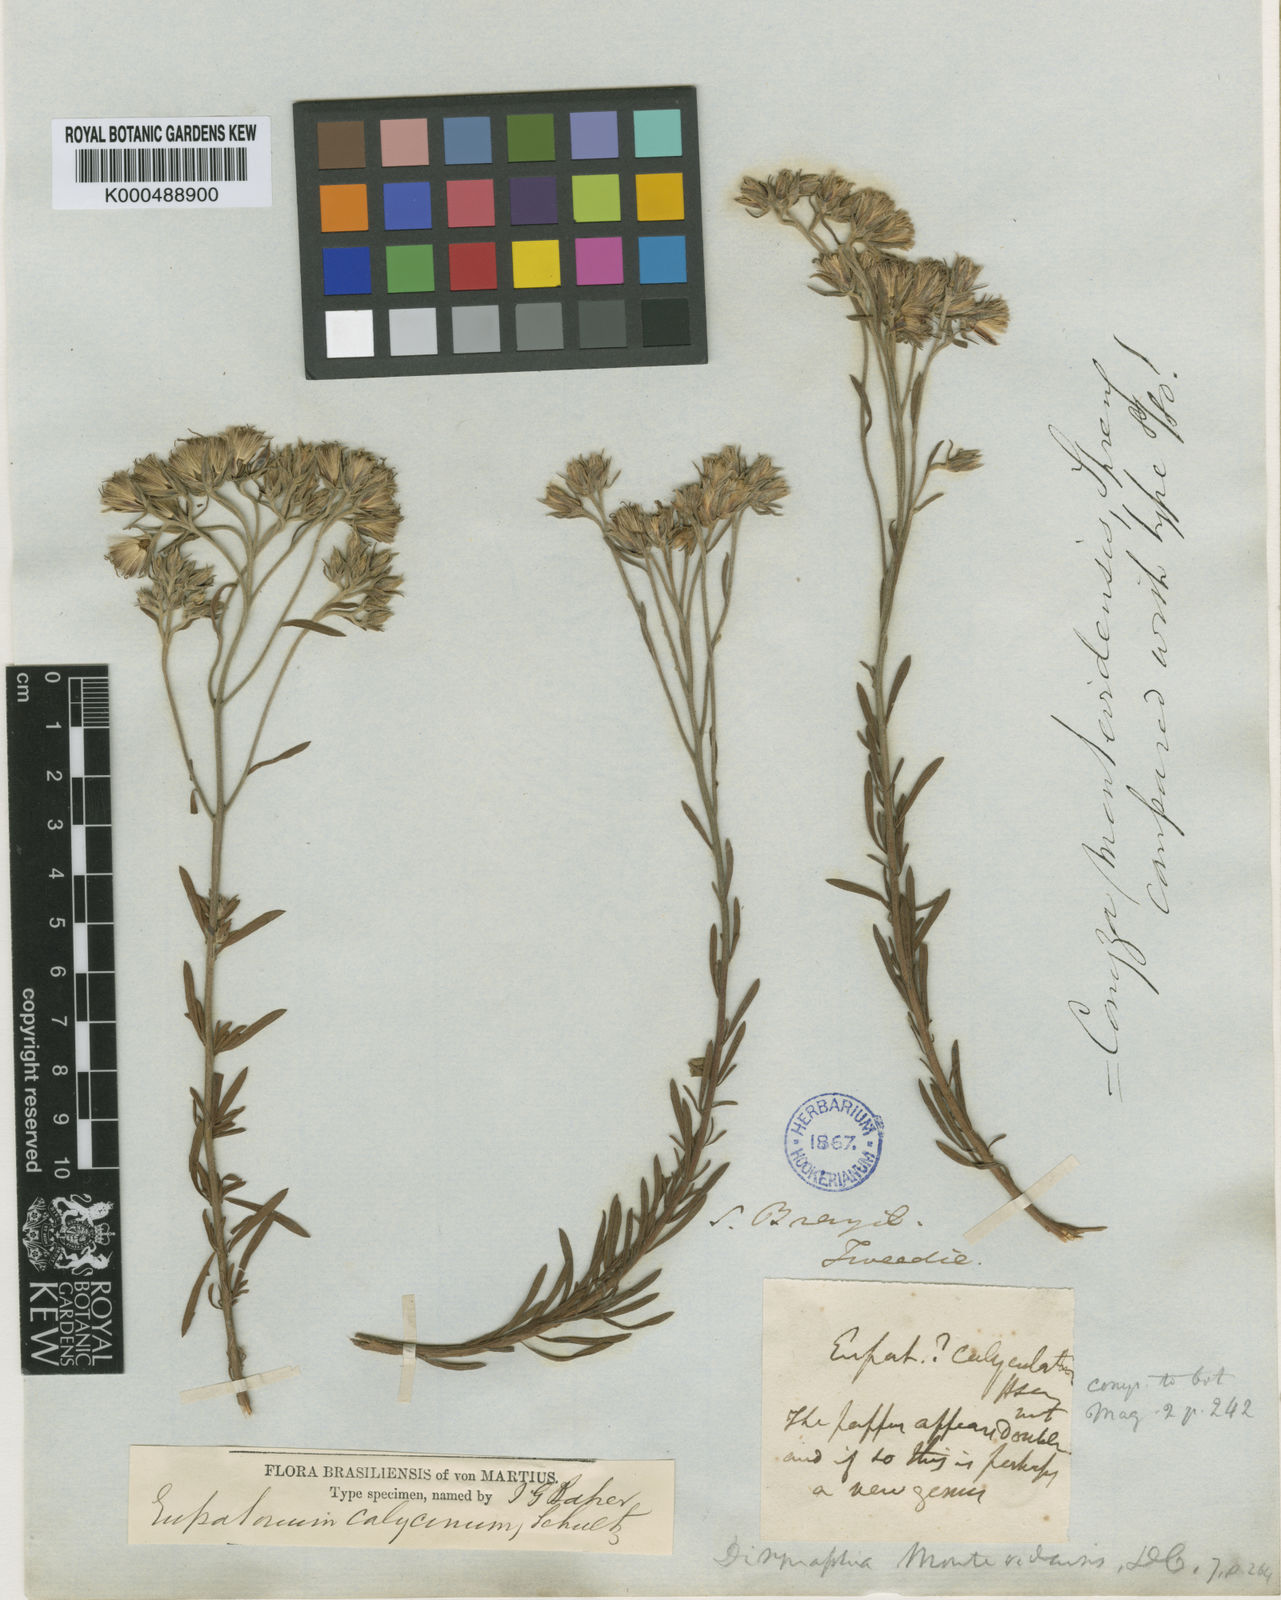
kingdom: Plantae
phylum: Tracheophyta
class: Magnoliopsida
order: Asterales
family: Asteraceae
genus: Disynaphia
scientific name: Disynaphia calyculata
